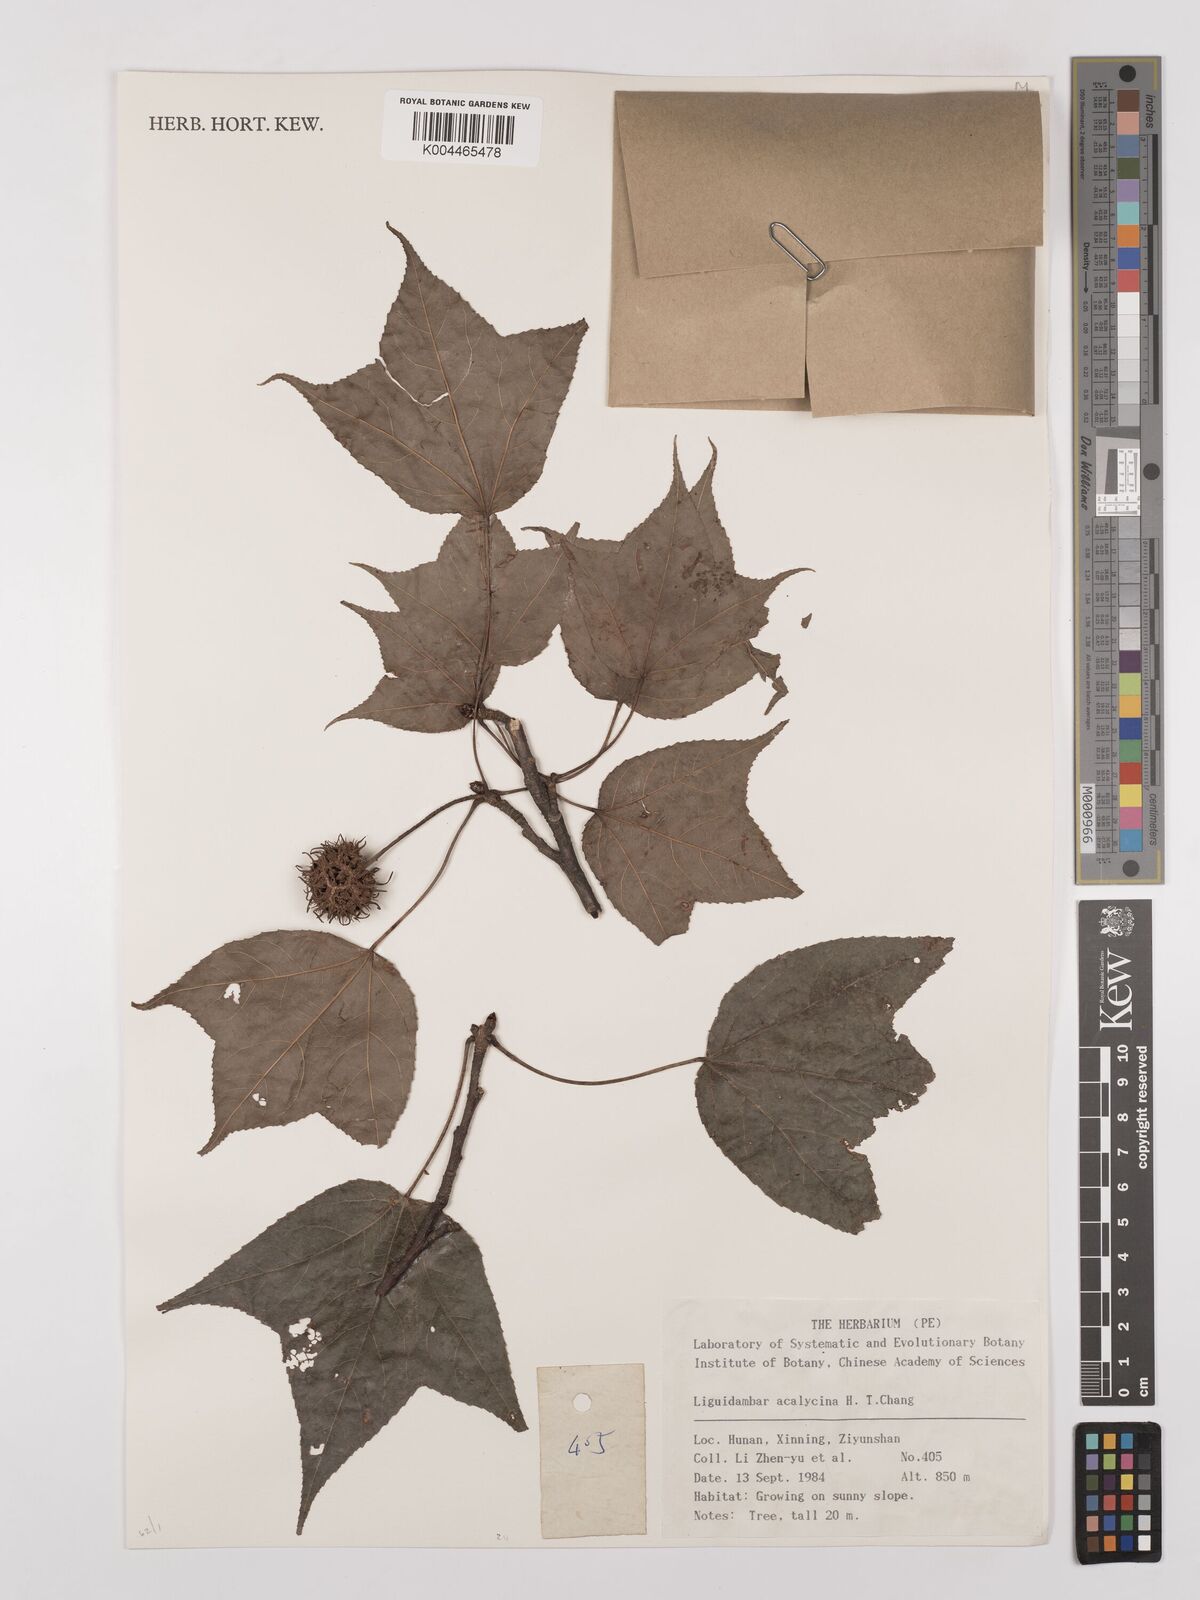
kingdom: Plantae
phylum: Tracheophyta
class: Magnoliopsida
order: Saxifragales
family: Altingiaceae
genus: Liquidambar
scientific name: Liquidambar acalycina
